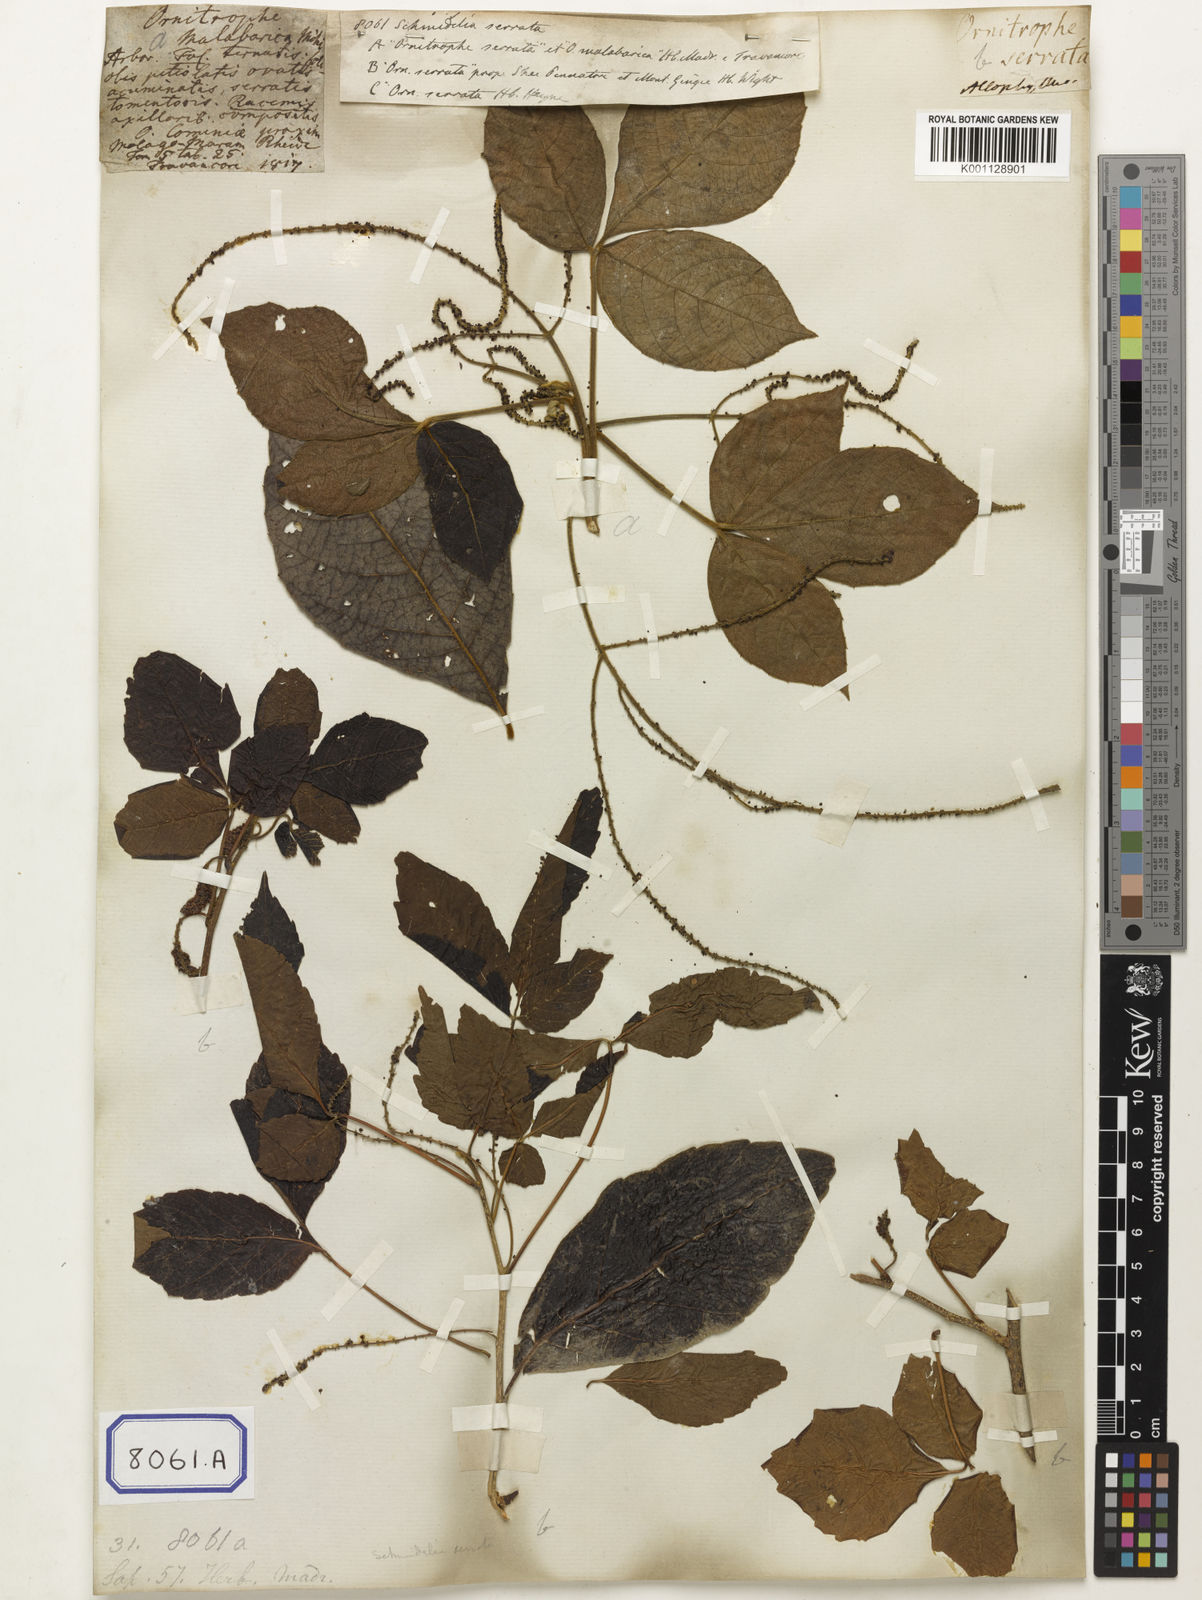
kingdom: Plantae
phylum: Tracheophyta
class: Magnoliopsida
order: Sapindales
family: Sapindaceae
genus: Allophylus
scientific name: Allophylus serratus
